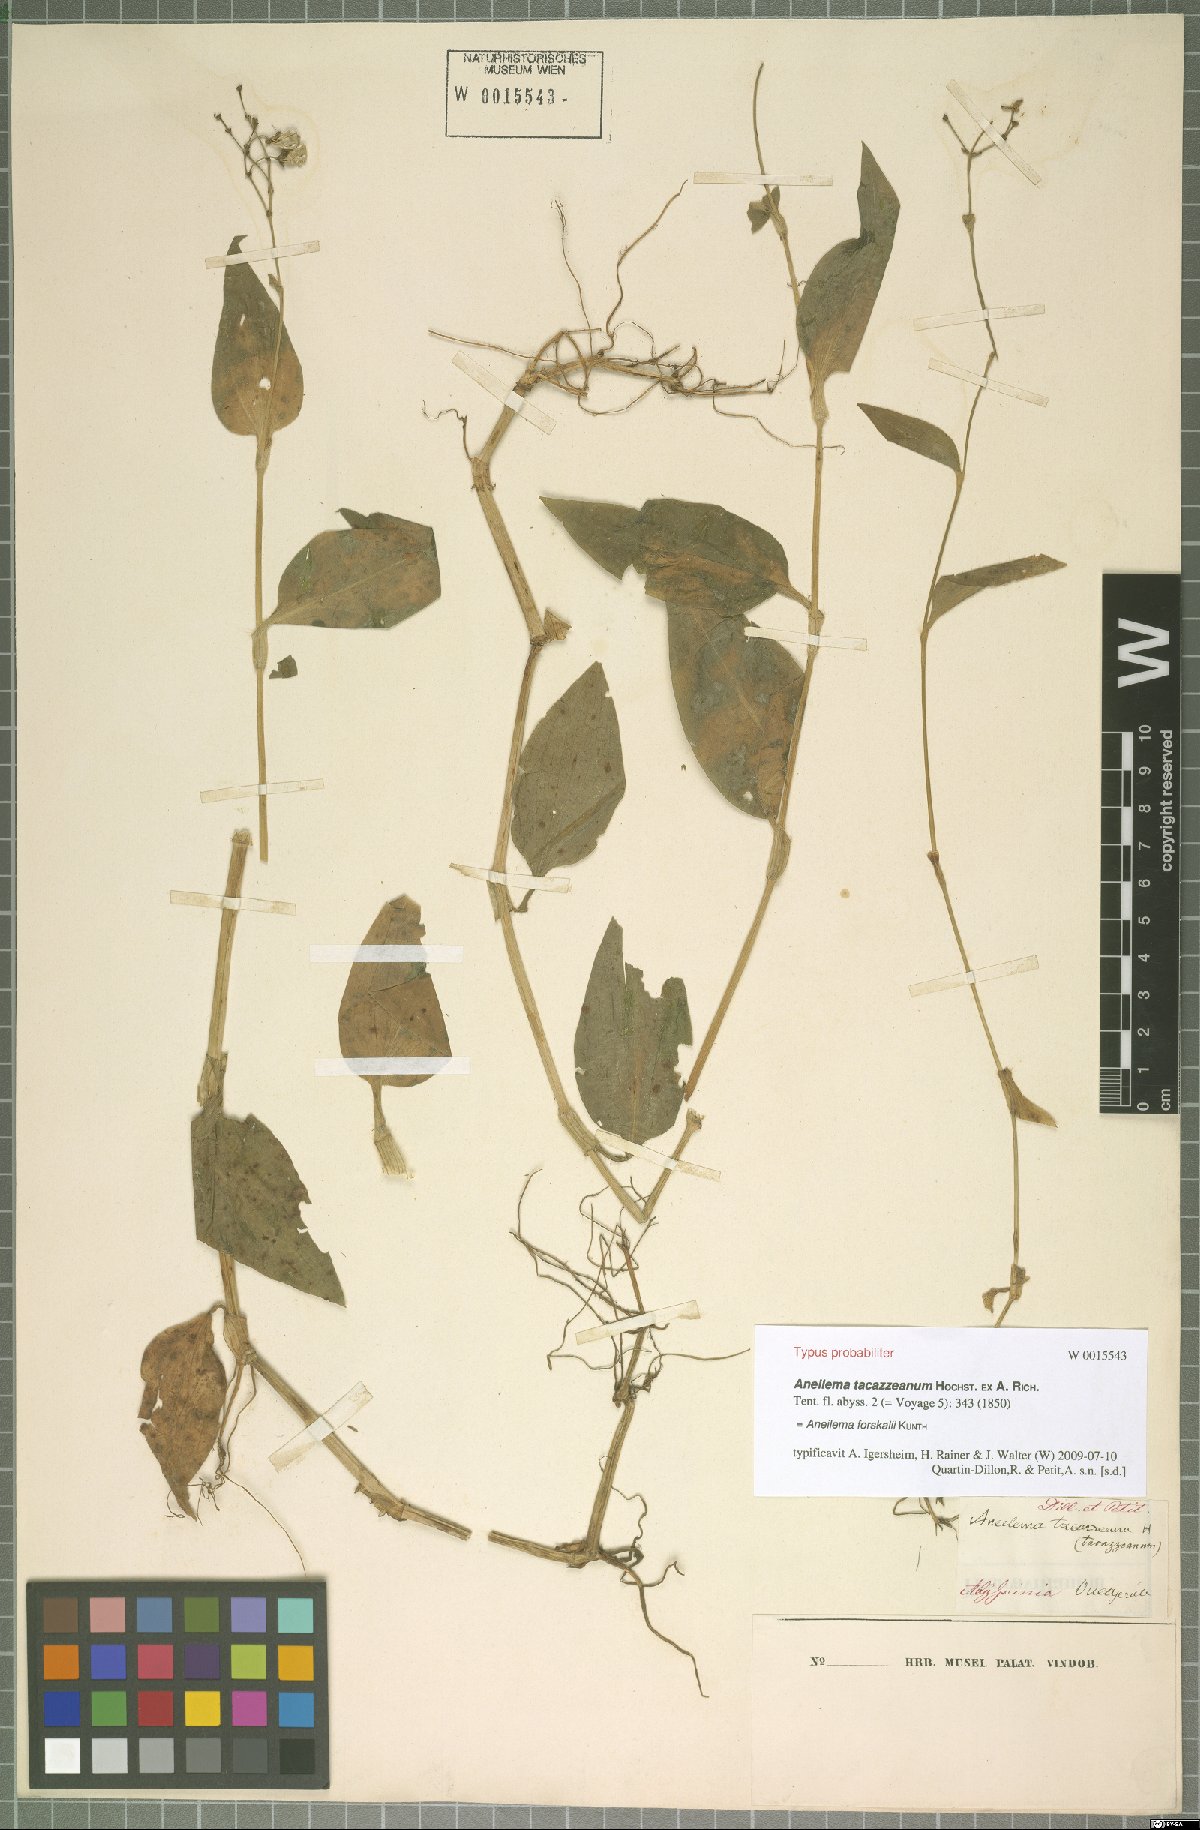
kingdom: Plantae
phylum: Tracheophyta
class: Liliopsida
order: Commelinales
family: Commelinaceae
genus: Aneilema
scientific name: Aneilema forskalii
